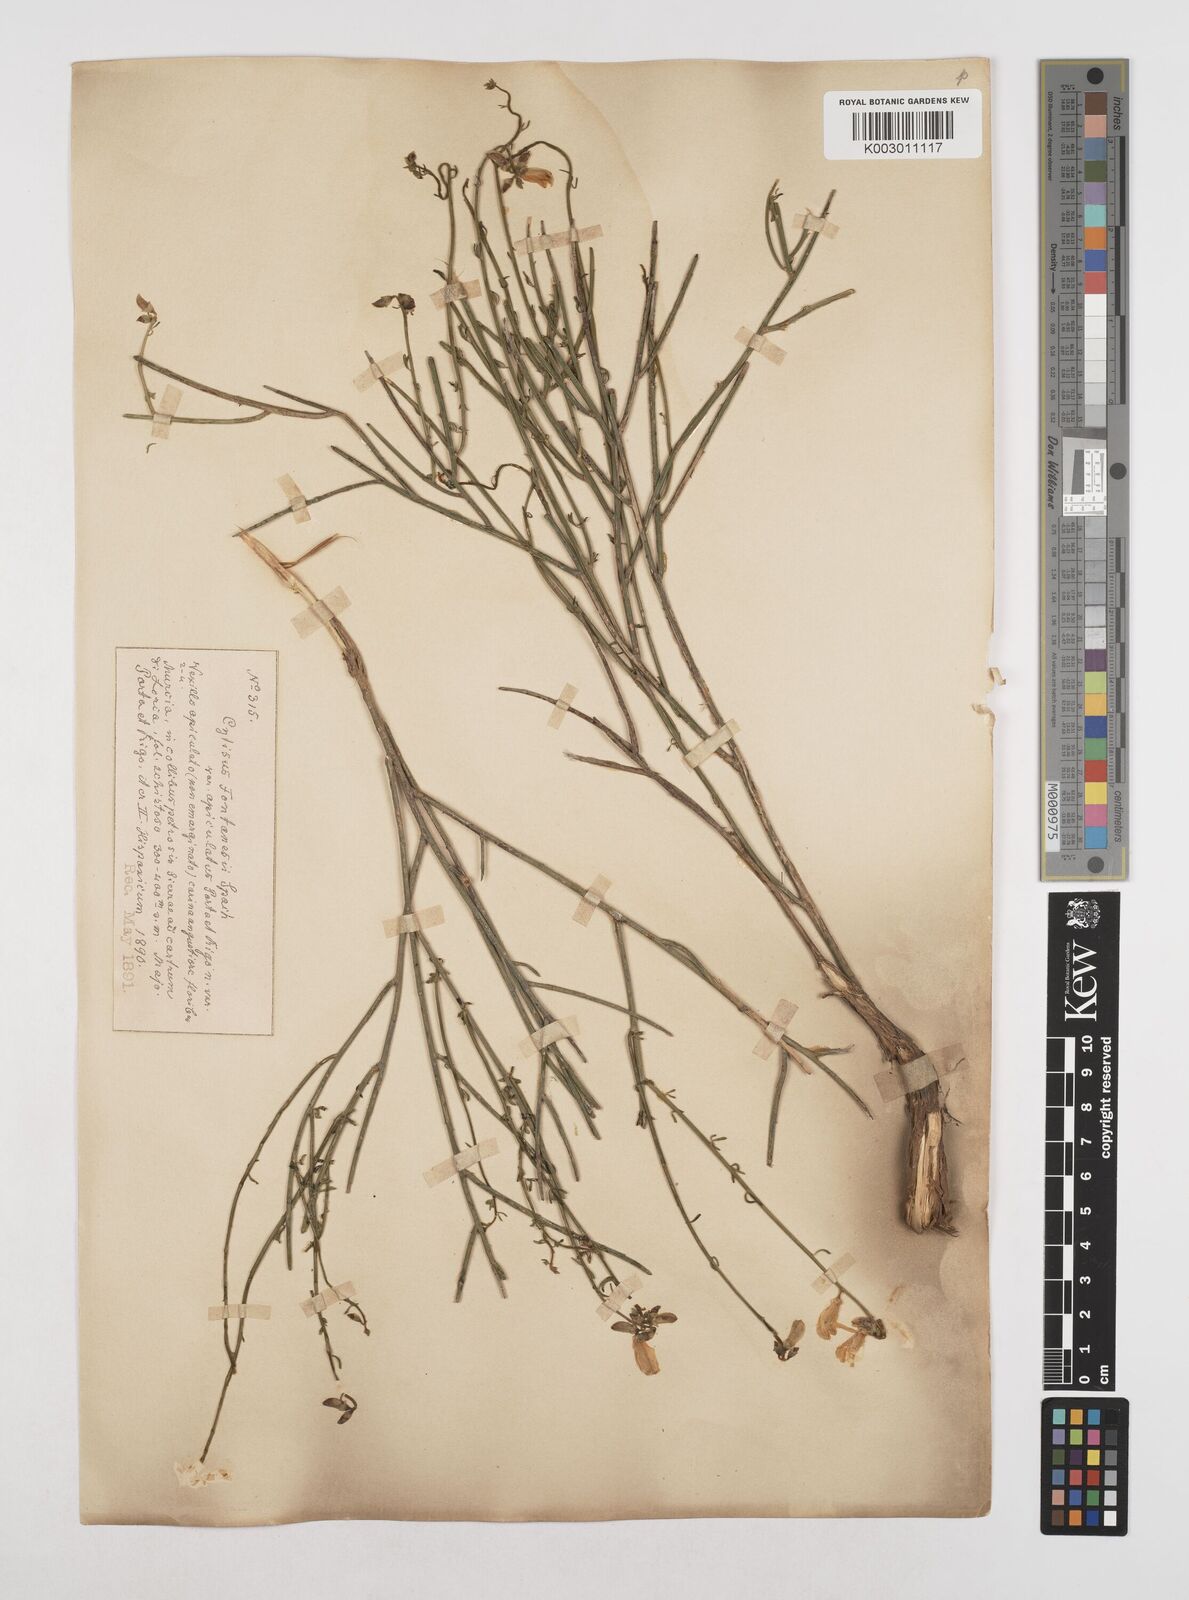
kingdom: Plantae
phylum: Tracheophyta
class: Magnoliopsida
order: Fabales
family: Fabaceae
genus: Cytisus
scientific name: Cytisus fontanesii
